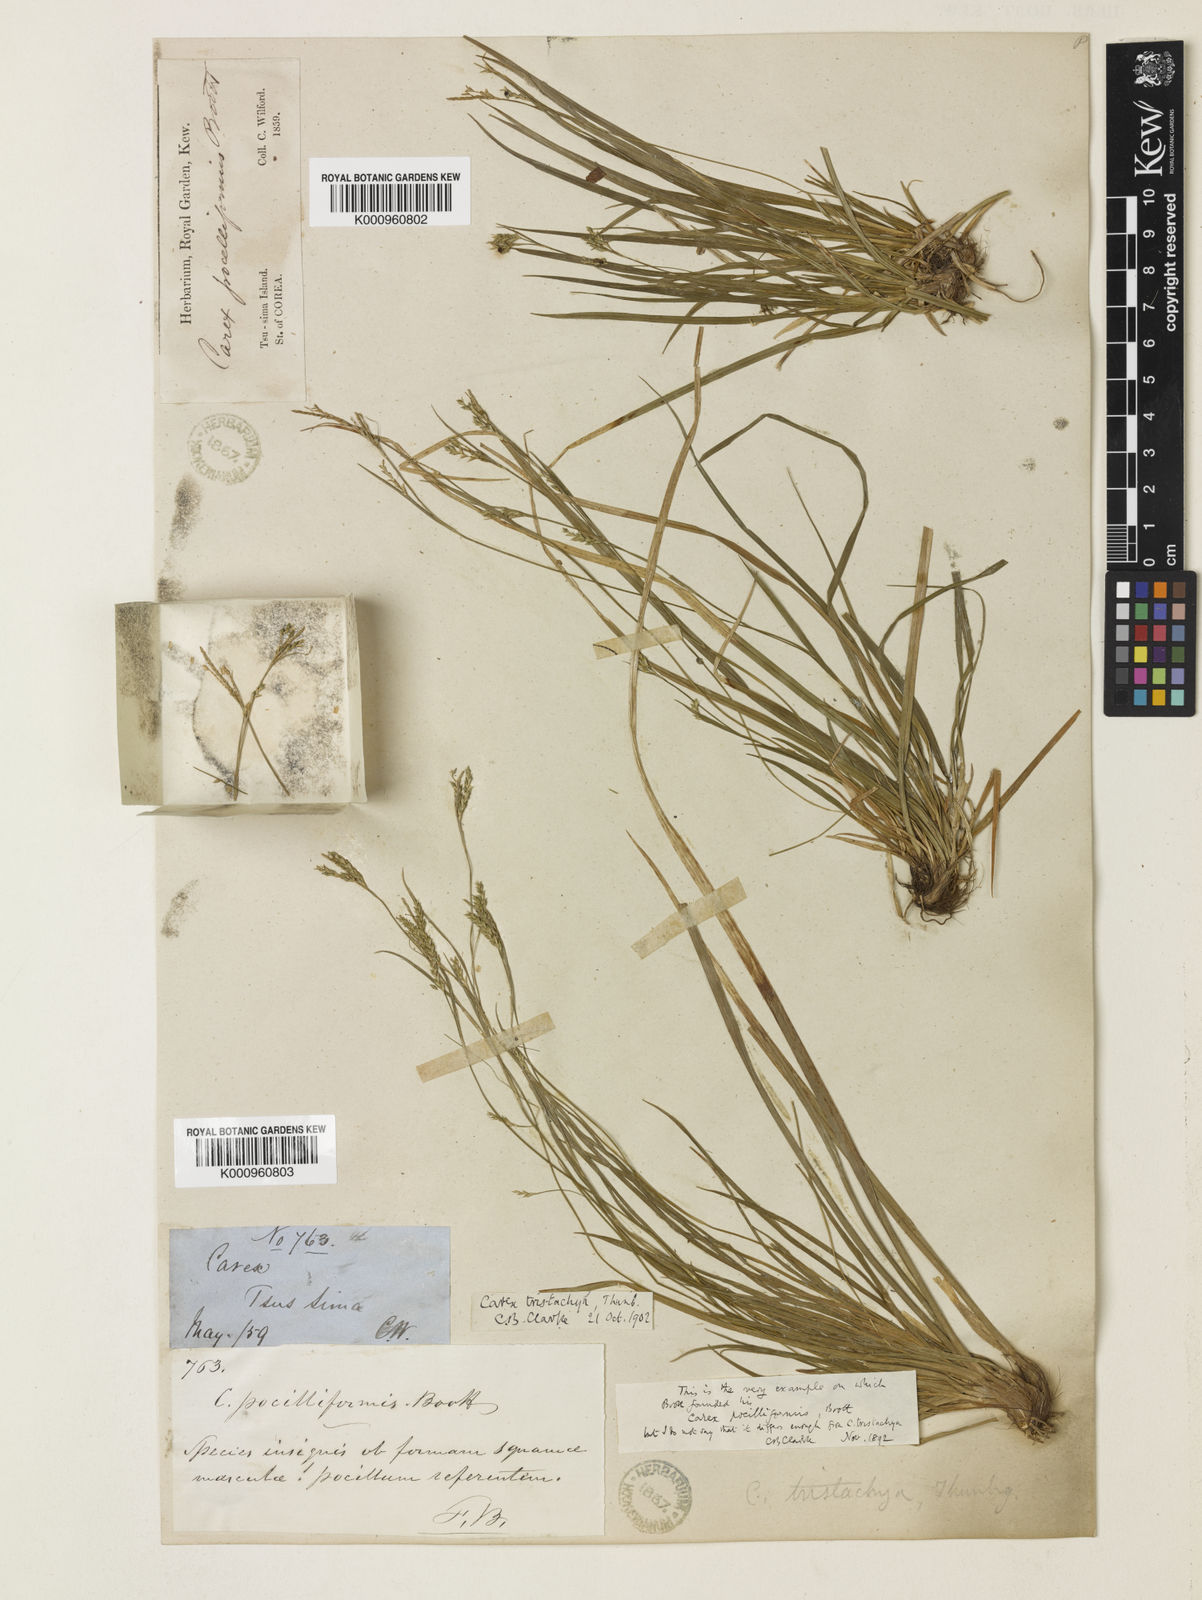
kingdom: Plantae
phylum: Tracheophyta
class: Liliopsida
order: Poales
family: Cyperaceae
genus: Carex
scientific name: Carex tristachya
